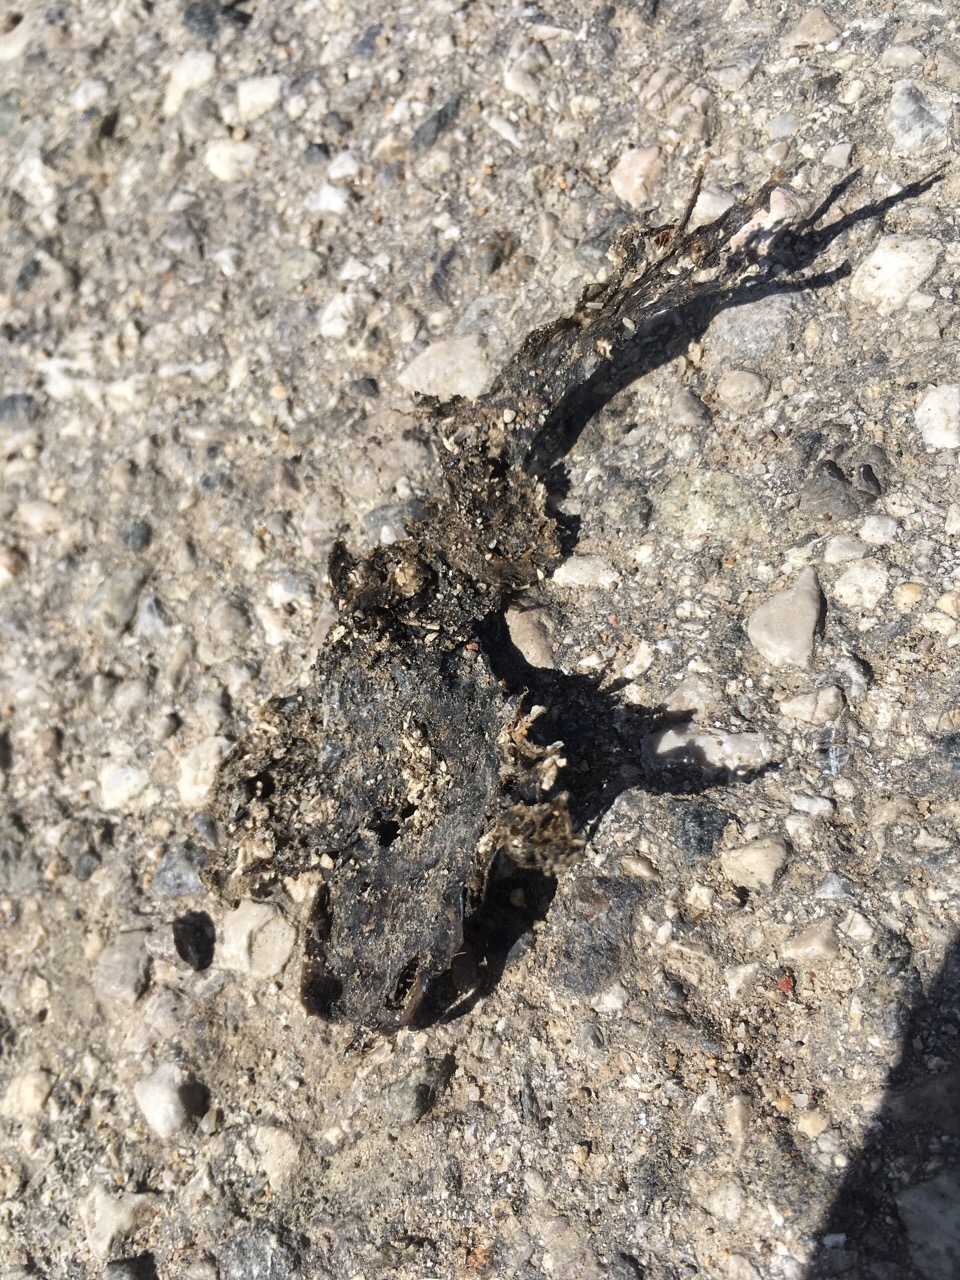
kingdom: Animalia
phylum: Chordata
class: Amphibia
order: Anura
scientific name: Anura
